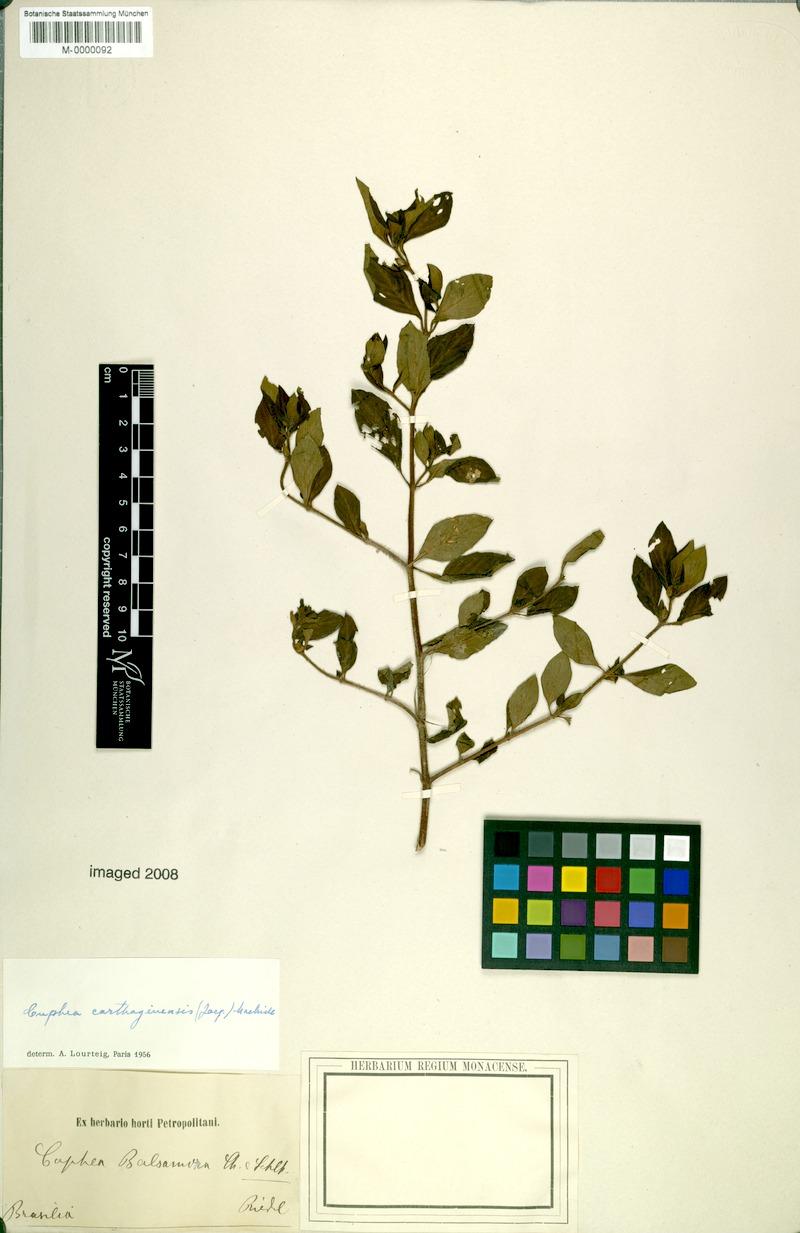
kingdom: Plantae
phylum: Tracheophyta
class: Magnoliopsida
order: Myrtales
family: Lythraceae
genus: Cuphea
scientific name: Cuphea carthagenensis
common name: Colombian waxweed
